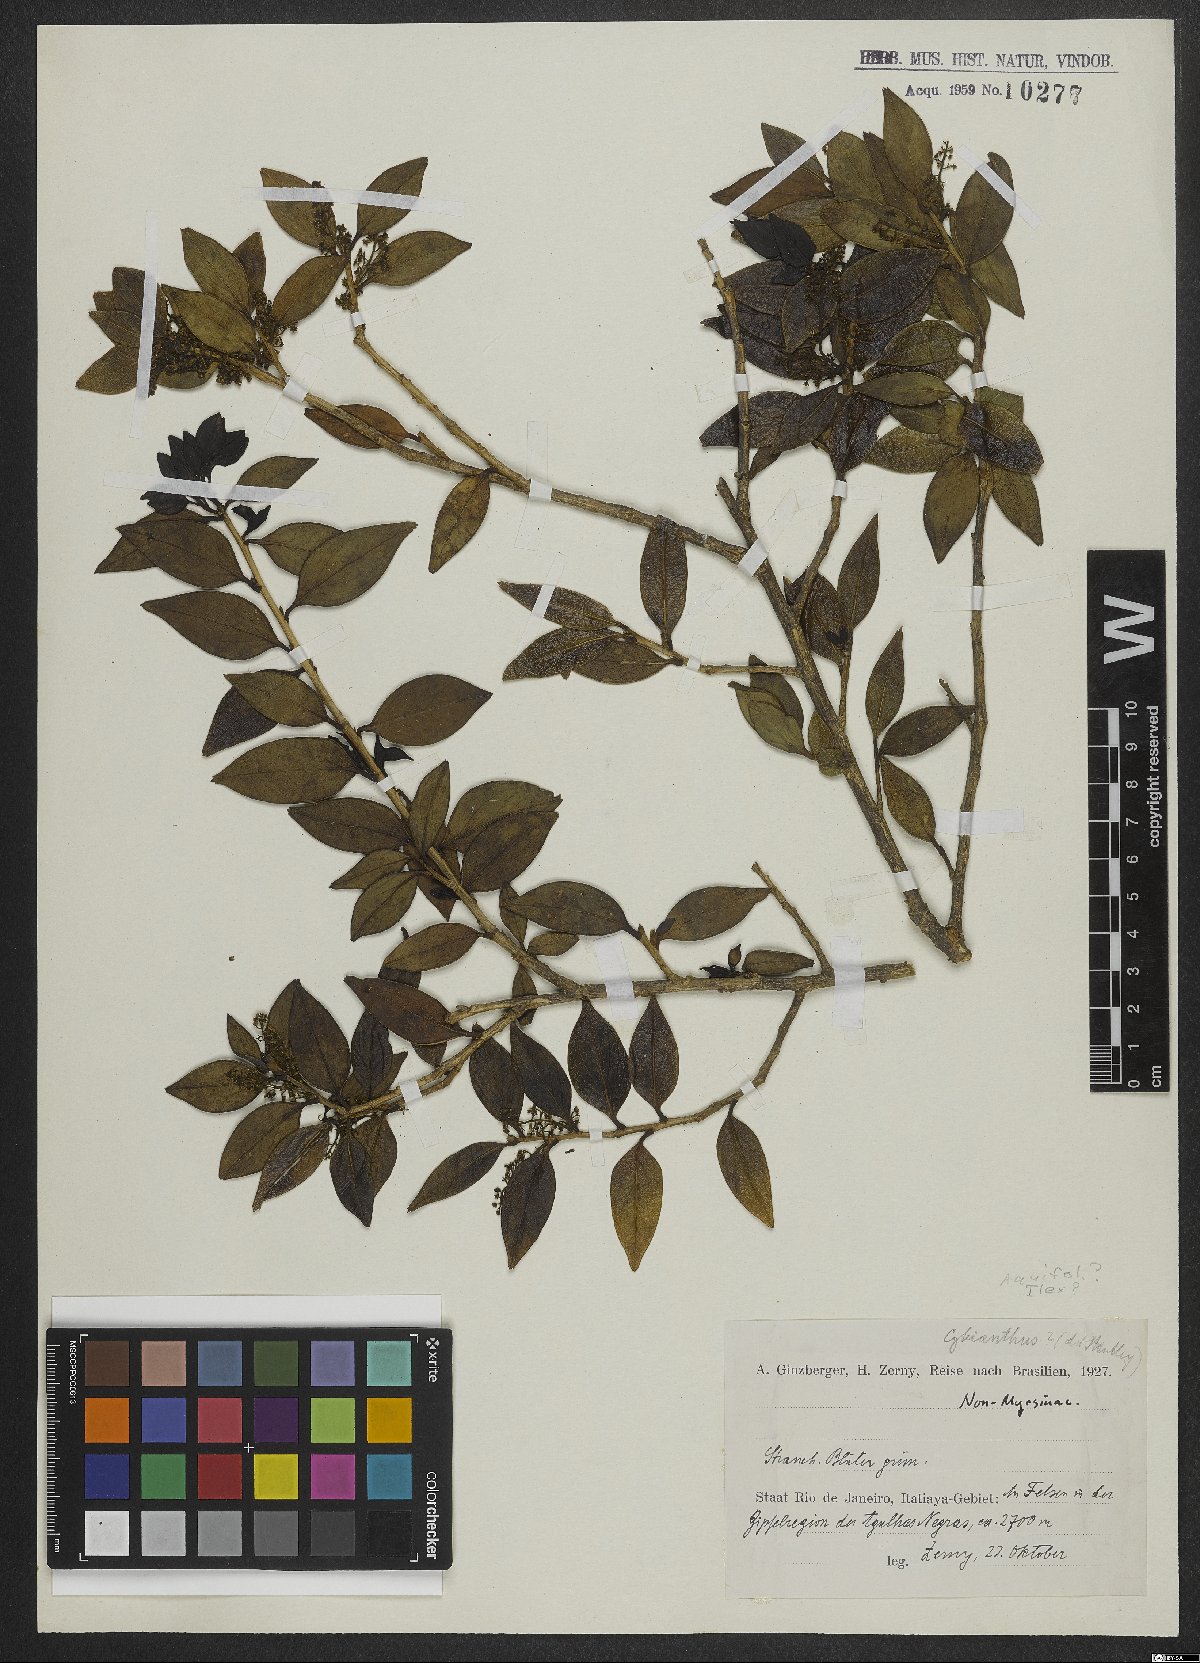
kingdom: Plantae
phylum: Tracheophyta
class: Magnoliopsida
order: Ericales
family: Primulaceae
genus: Cybianthus
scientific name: Cybianthus
